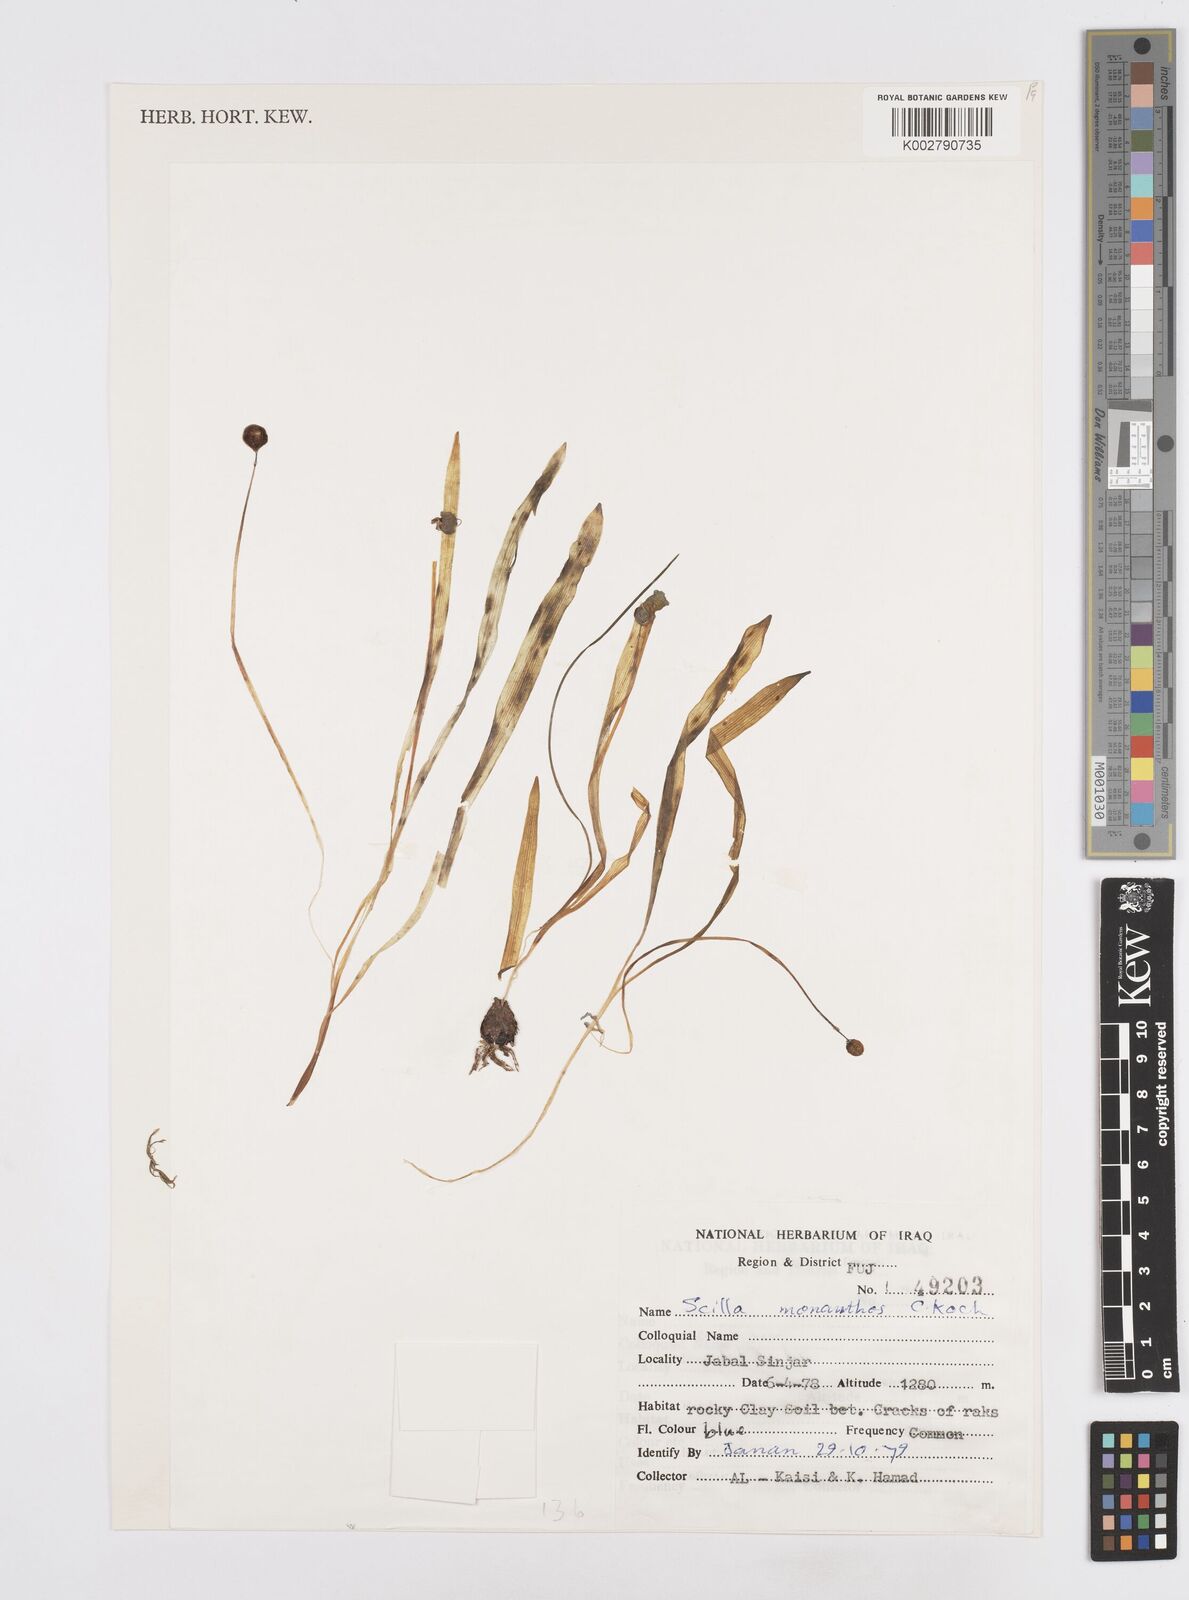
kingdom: Plantae
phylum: Tracheophyta
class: Liliopsida
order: Asparagales
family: Asparagaceae
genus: Scilla
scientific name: Scilla monanthos
